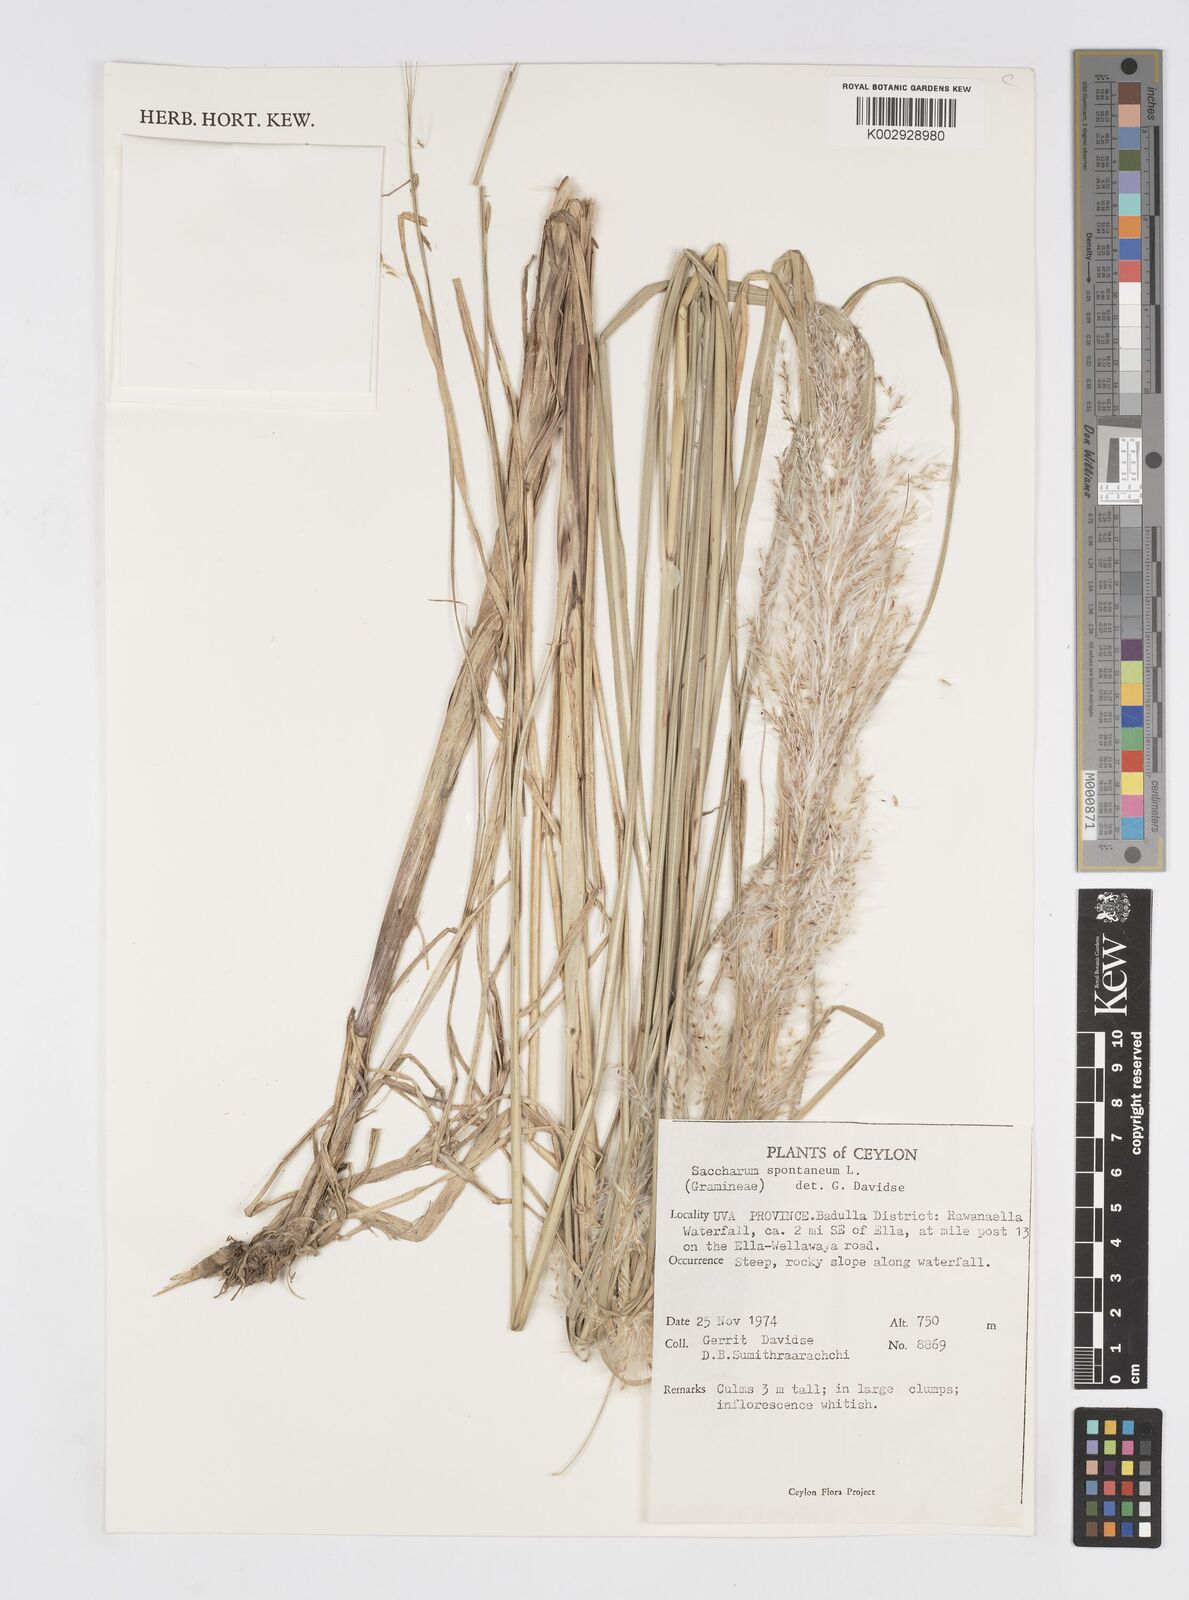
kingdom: Plantae
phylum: Tracheophyta
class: Liliopsida
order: Poales
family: Poaceae
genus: Saccharum
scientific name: Saccharum spontaneum
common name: Wild sugarcane
